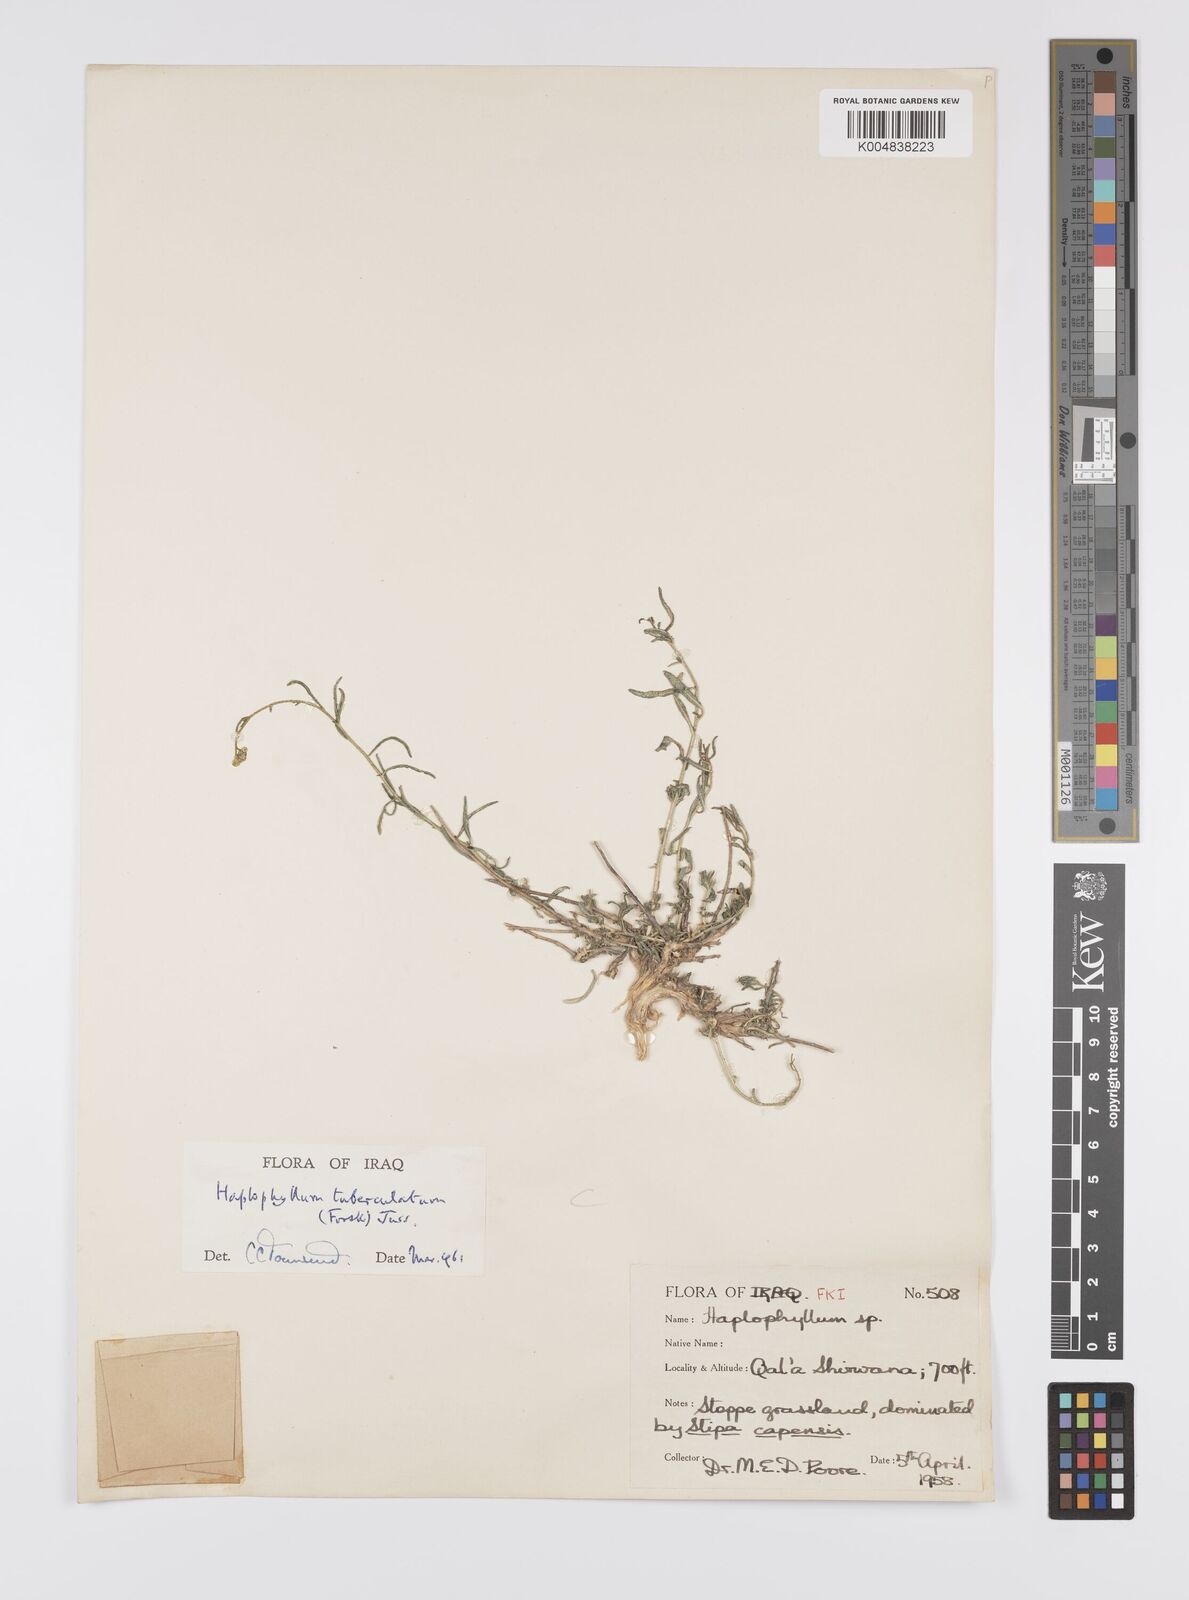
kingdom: Plantae
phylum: Tracheophyta
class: Magnoliopsida
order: Sapindales
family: Rutaceae
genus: Haplophyllum
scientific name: Haplophyllum tuberculatum
